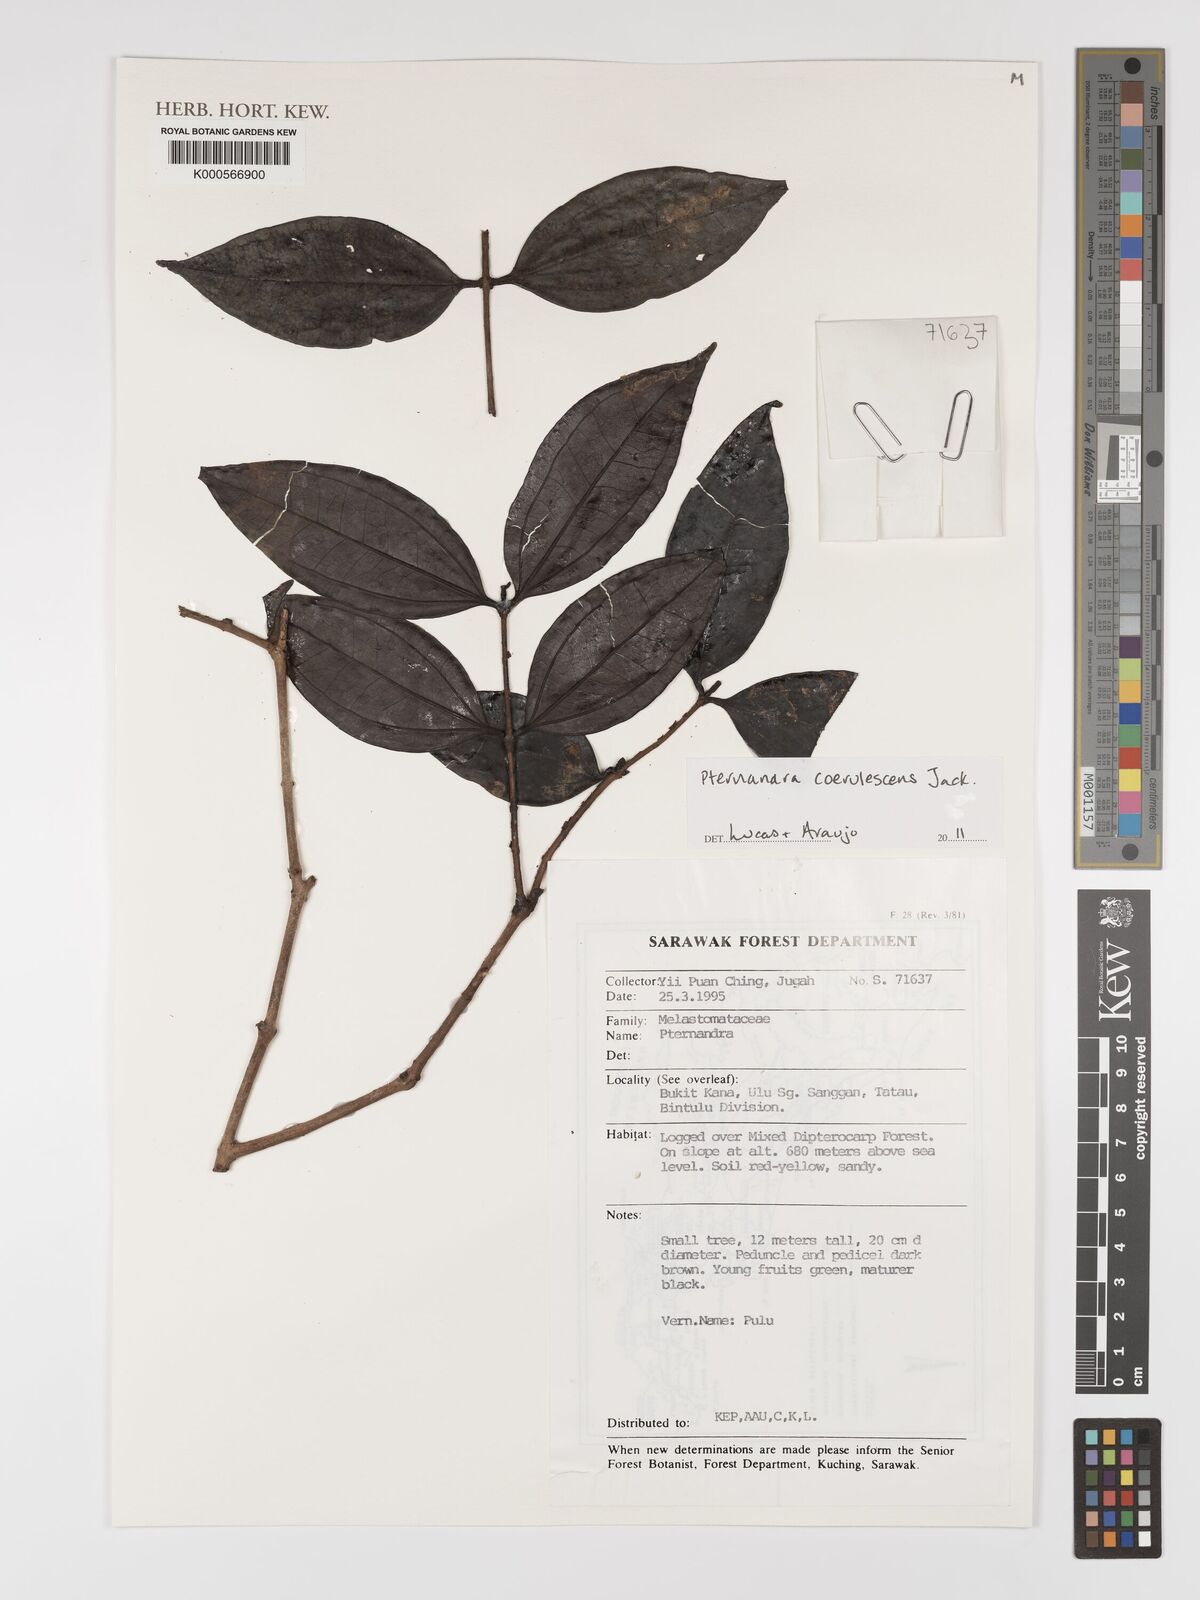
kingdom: Plantae
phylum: Tracheophyta
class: Magnoliopsida
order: Myrtales
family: Melastomataceae
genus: Pternandra
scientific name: Pternandra coerulescens
